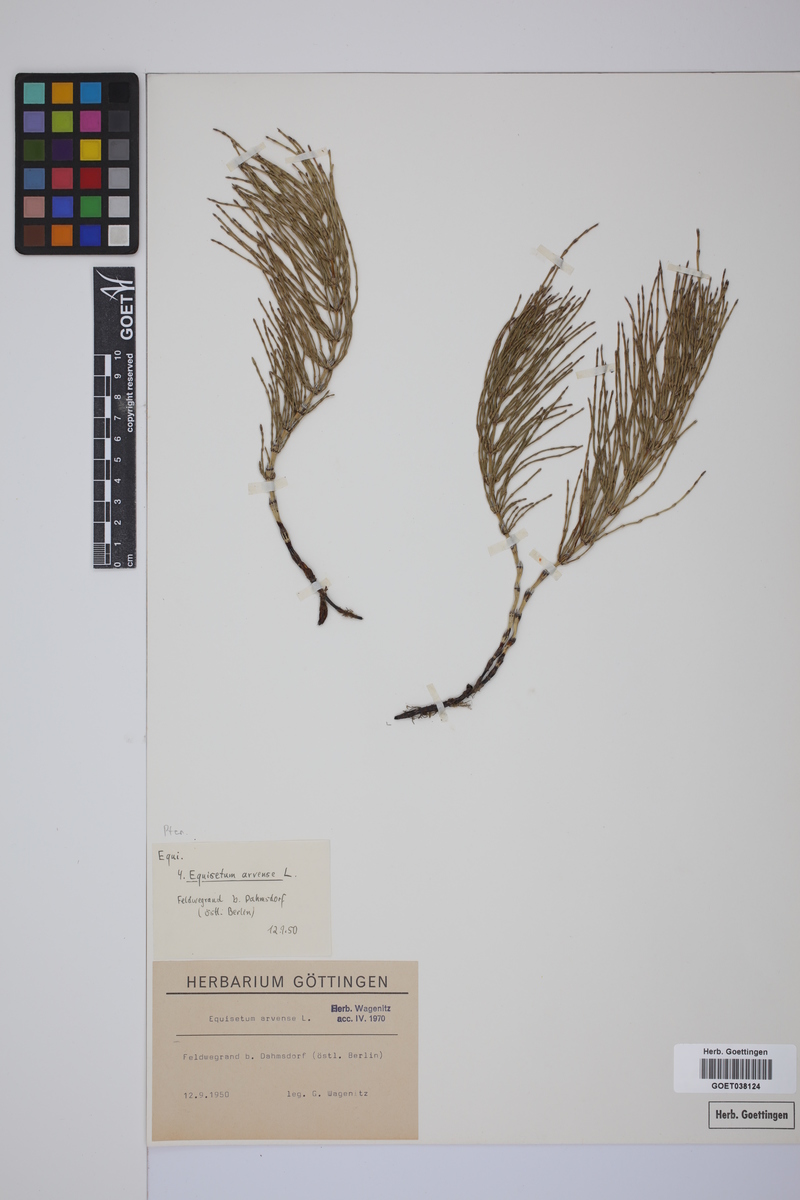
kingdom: Plantae
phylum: Tracheophyta
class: Polypodiopsida
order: Equisetales
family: Equisetaceae
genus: Equisetum
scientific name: Equisetum arvense
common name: Field horsetail
